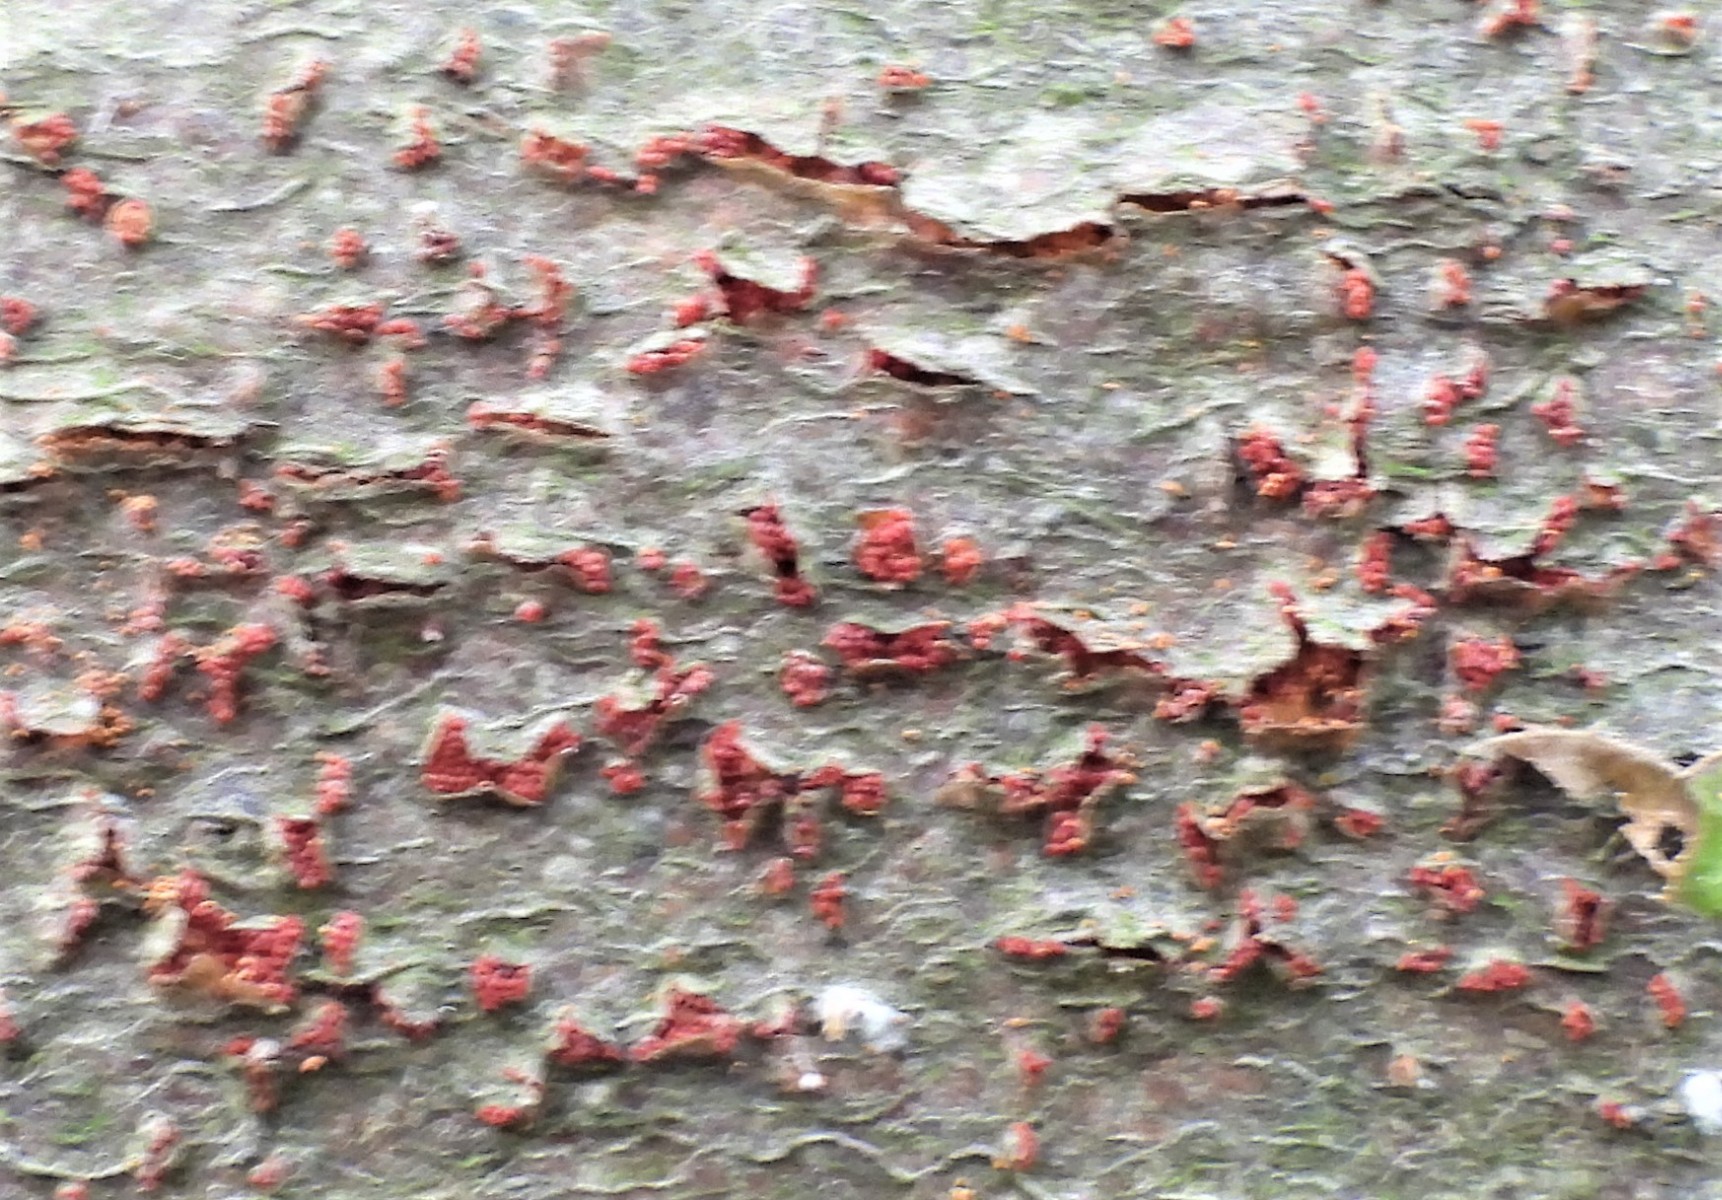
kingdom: Fungi
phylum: Ascomycota
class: Sordariomycetes
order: Hypocreales
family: Nectriaceae
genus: Neonectria
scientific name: Neonectria coccinea
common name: bøgebark-cinnobersvamp
